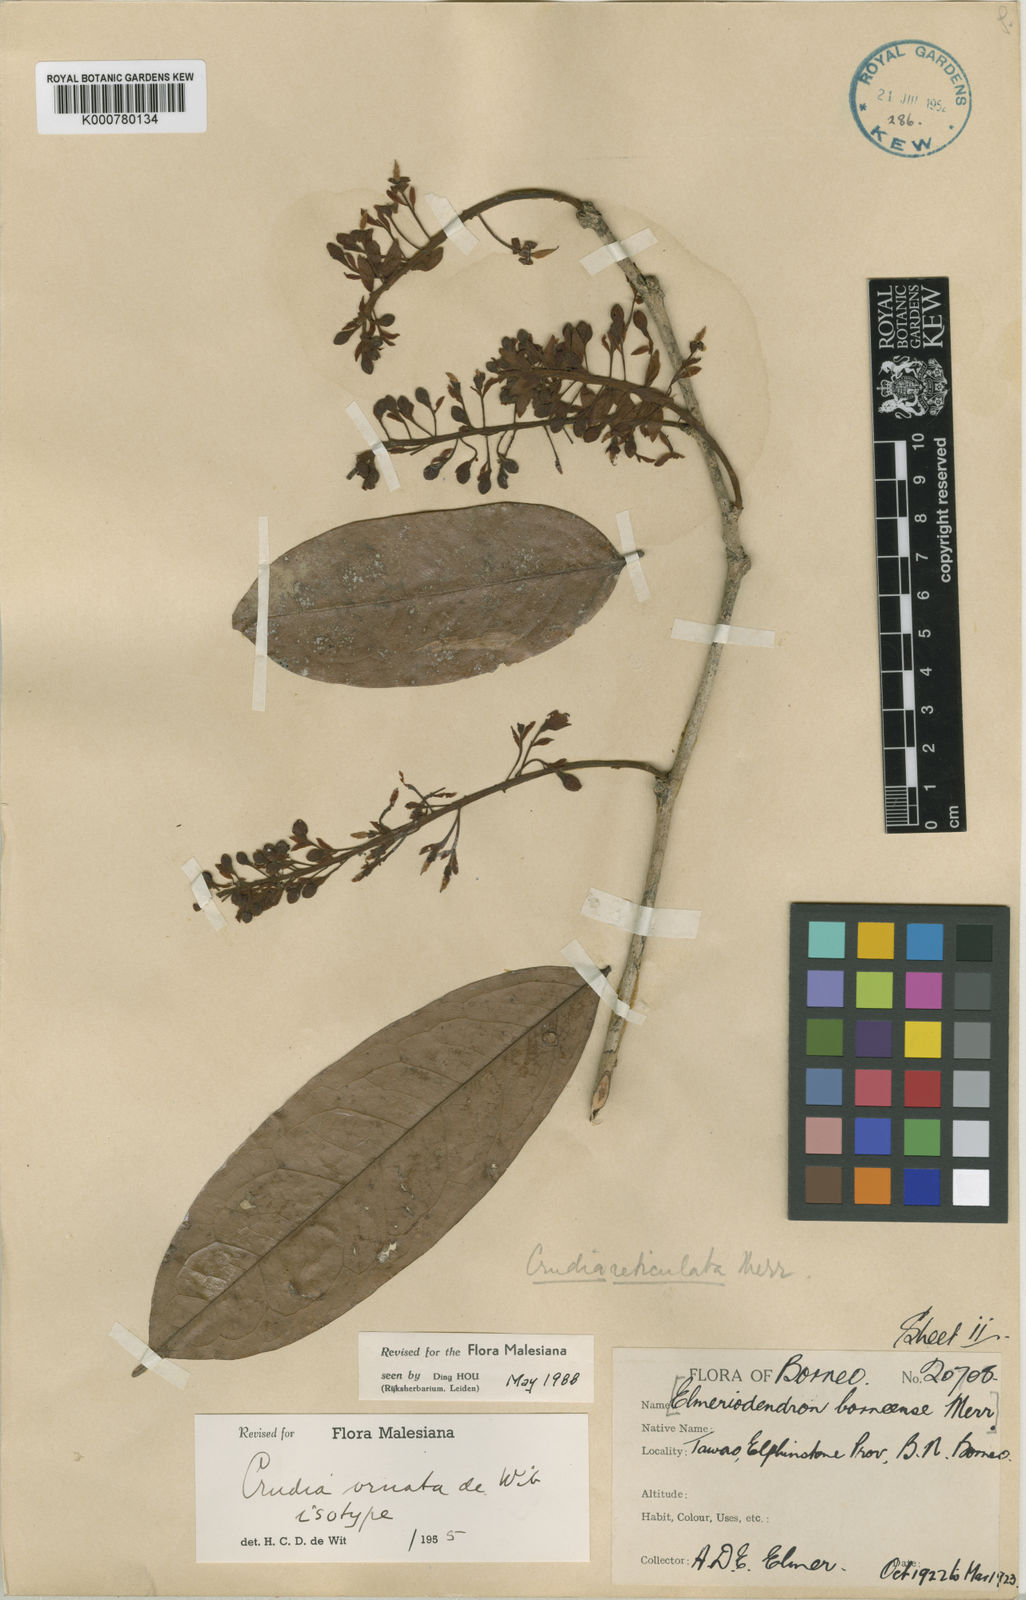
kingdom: Plantae
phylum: Tracheophyta
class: Magnoliopsida
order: Fabales
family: Fabaceae
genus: Crudia
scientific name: Crudia ornata
